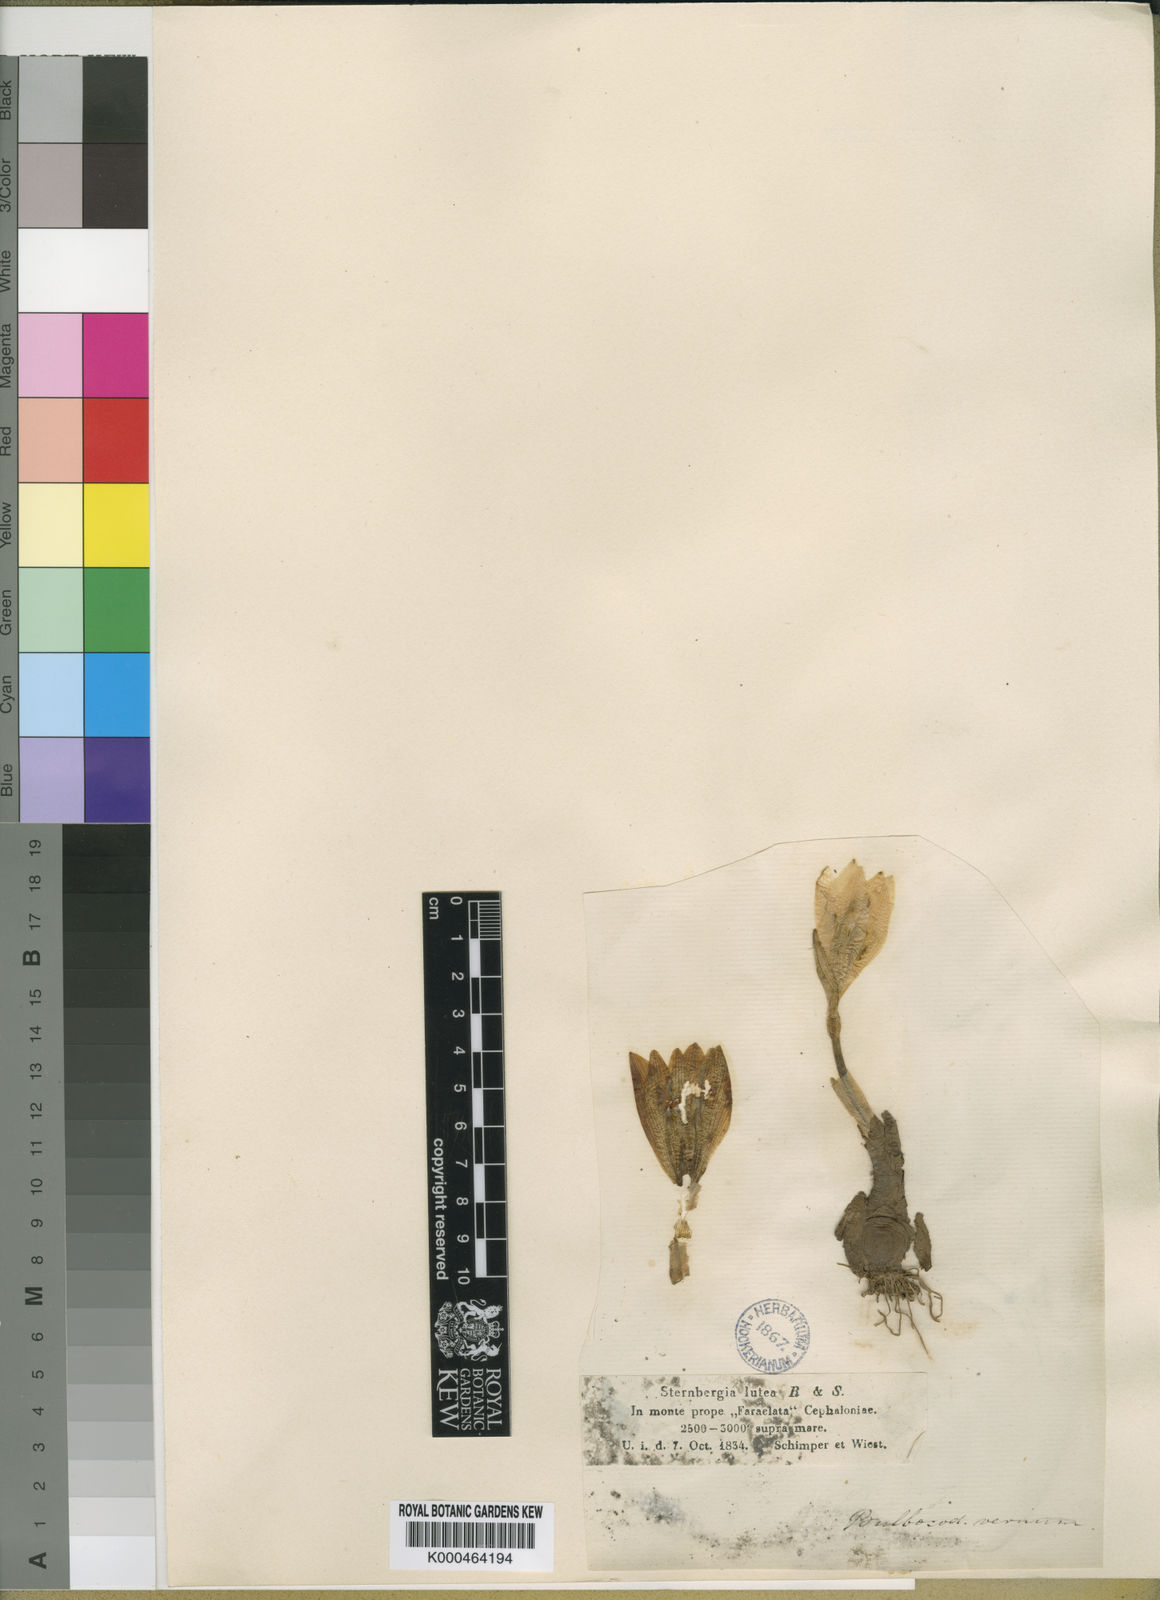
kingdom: Plantae
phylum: Tracheophyta
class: Liliopsida
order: Asparagales
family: Amaryllidaceae
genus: Sternbergia
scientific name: Sternbergia
